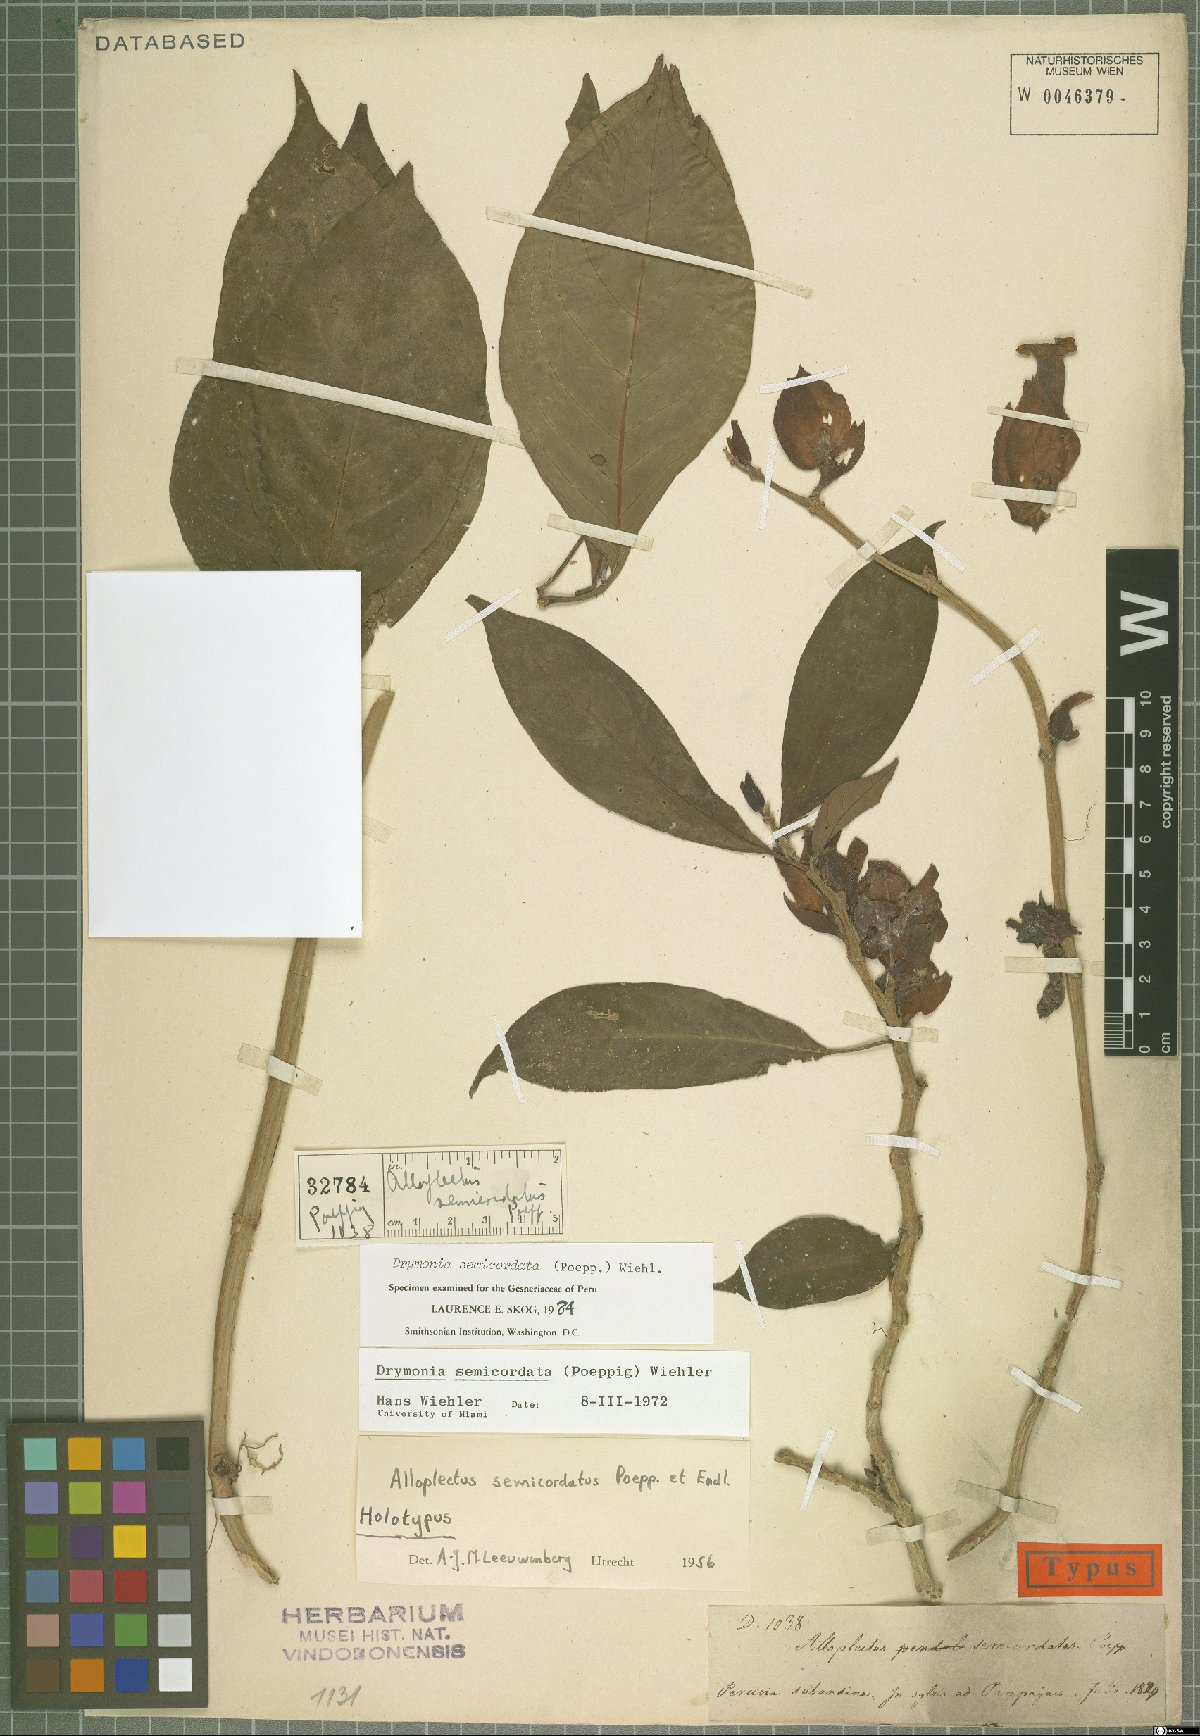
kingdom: Plantae
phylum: Tracheophyta
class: Magnoliopsida
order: Lamiales
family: Gesneriaceae
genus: Drymonia
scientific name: Drymonia semicordata
